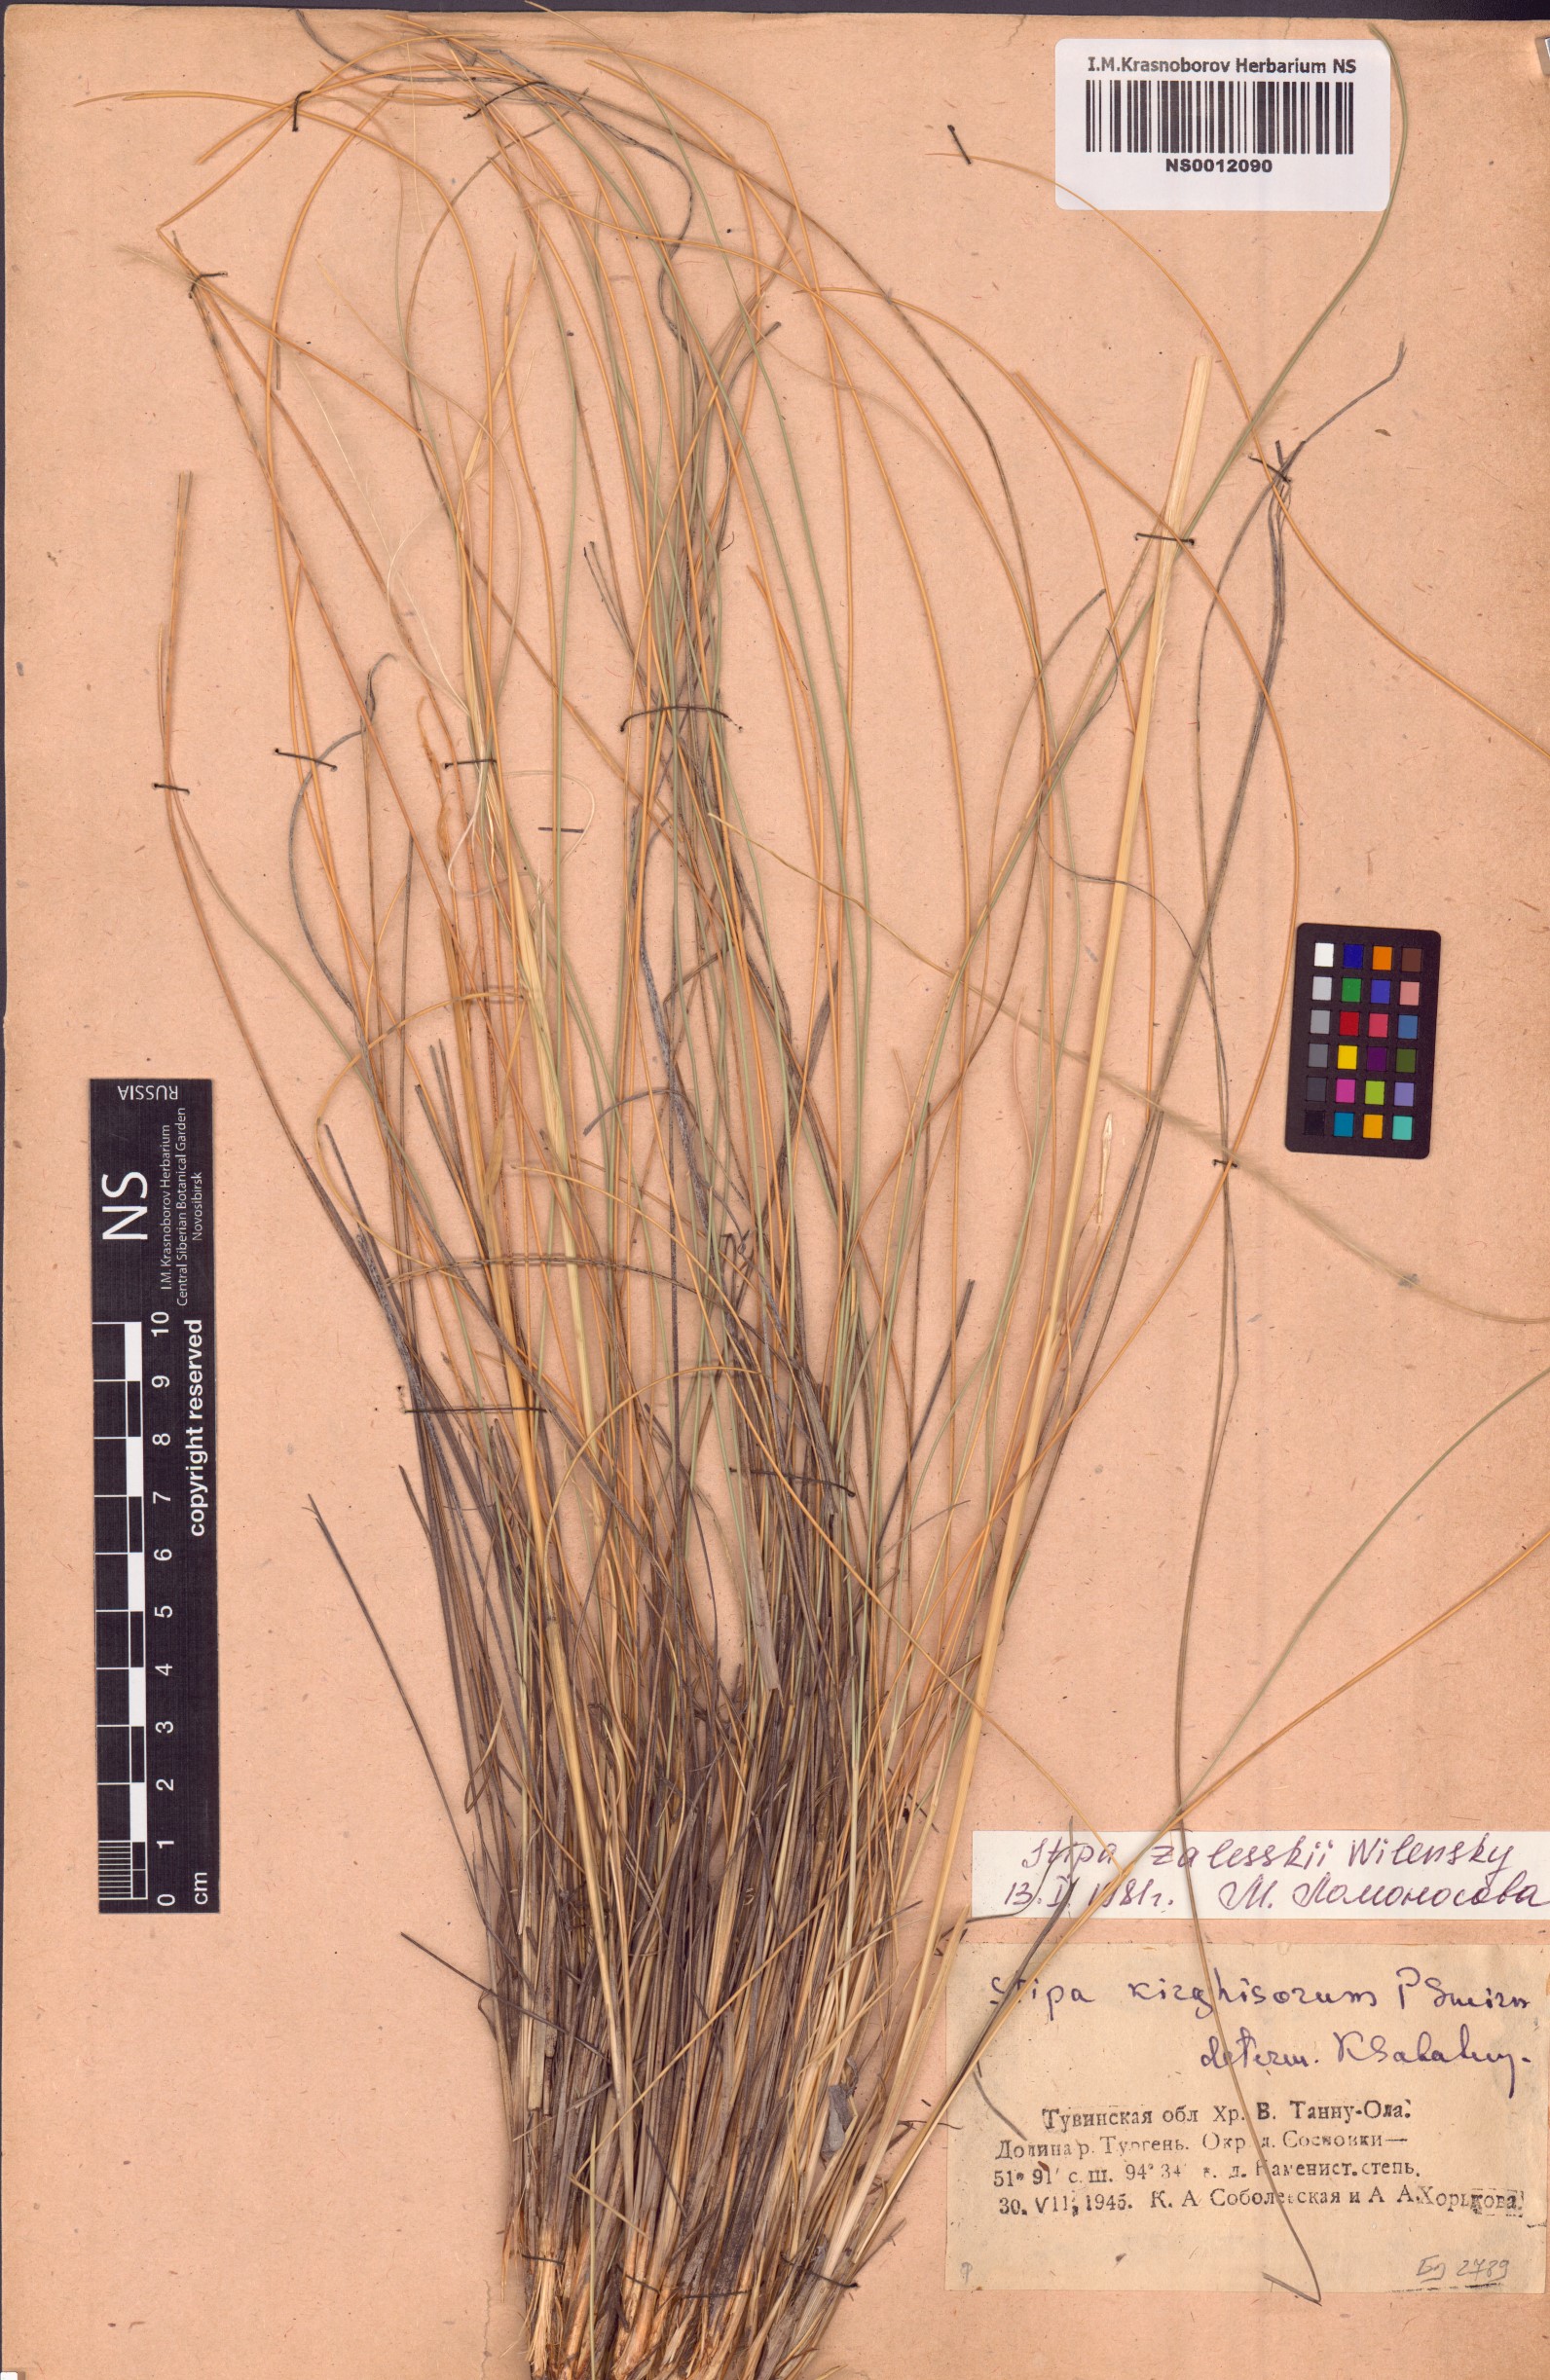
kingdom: Plantae
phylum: Tracheophyta
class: Liliopsida
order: Poales
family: Poaceae
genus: Stipa
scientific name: Stipa zalesskii
